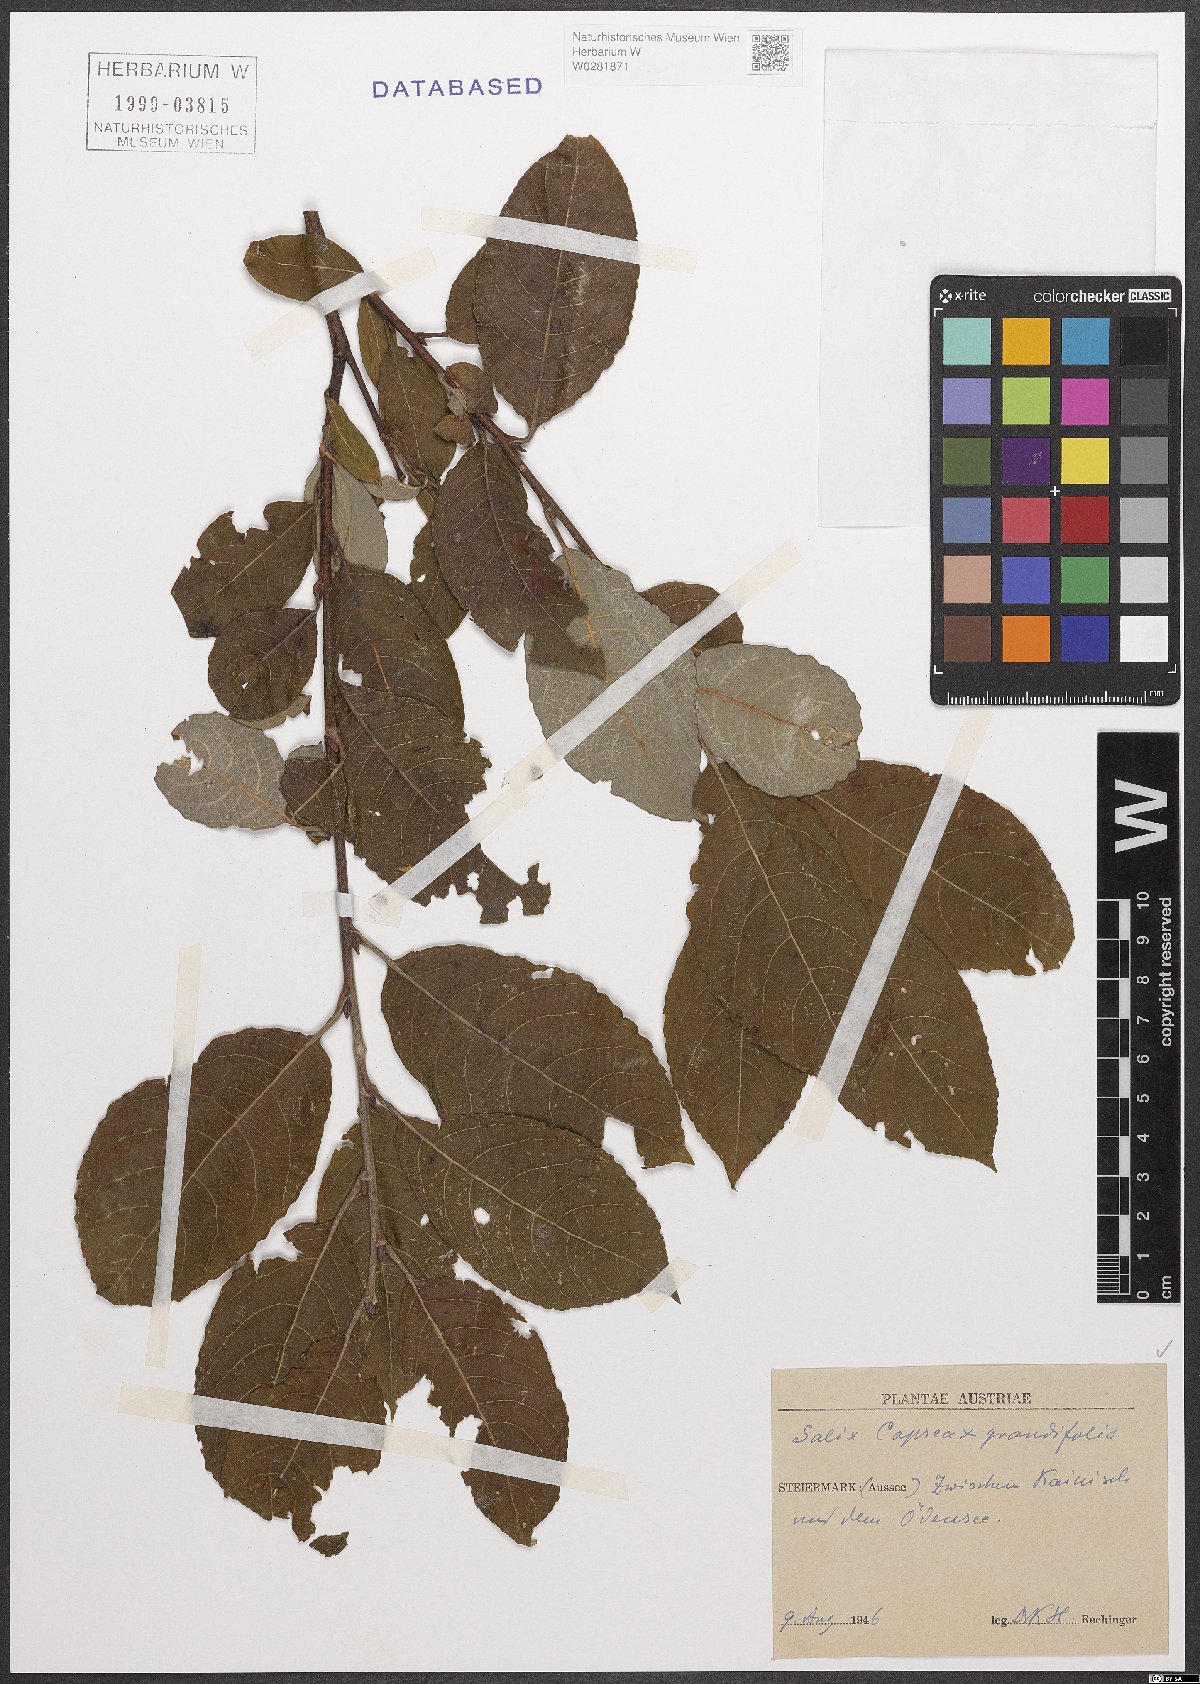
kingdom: Plantae
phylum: Tracheophyta
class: Magnoliopsida
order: Malpighiales
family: Salicaceae
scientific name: Salicaceae
